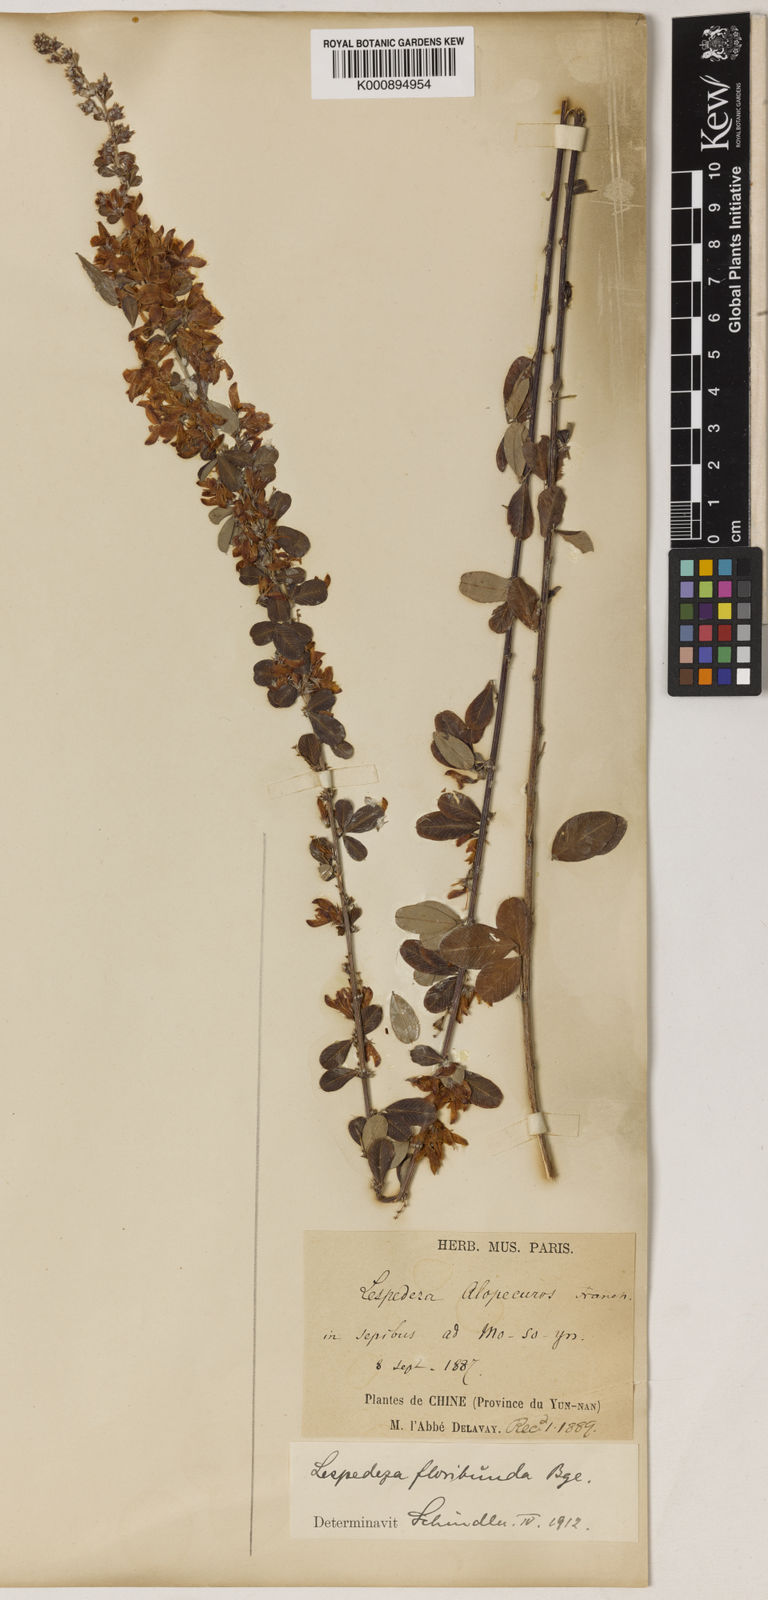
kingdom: Plantae
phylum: Tracheophyta
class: Magnoliopsida
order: Fabales
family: Fabaceae
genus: Lespedeza
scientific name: Lespedeza floribunda
